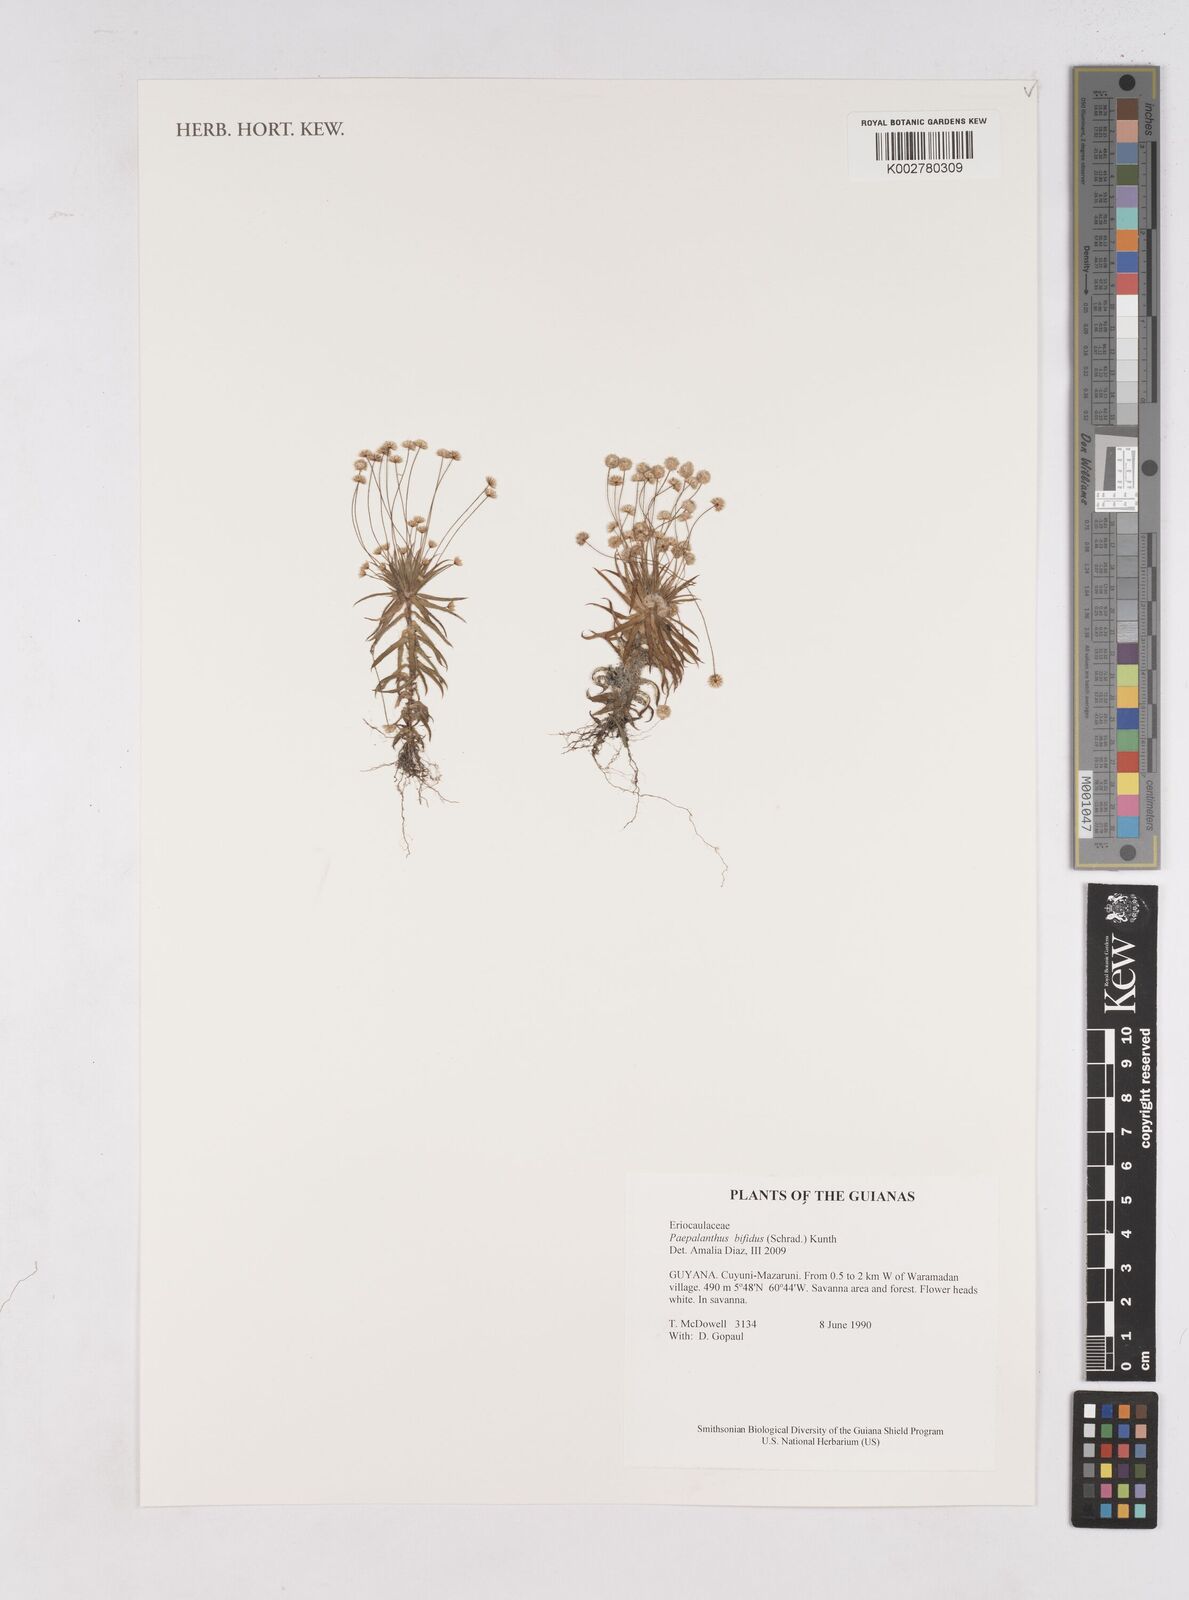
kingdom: Plantae
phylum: Tracheophyta
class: Liliopsida
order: Poales
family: Eriocaulaceae
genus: Paepalanthus
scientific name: Paepalanthus bifidus
